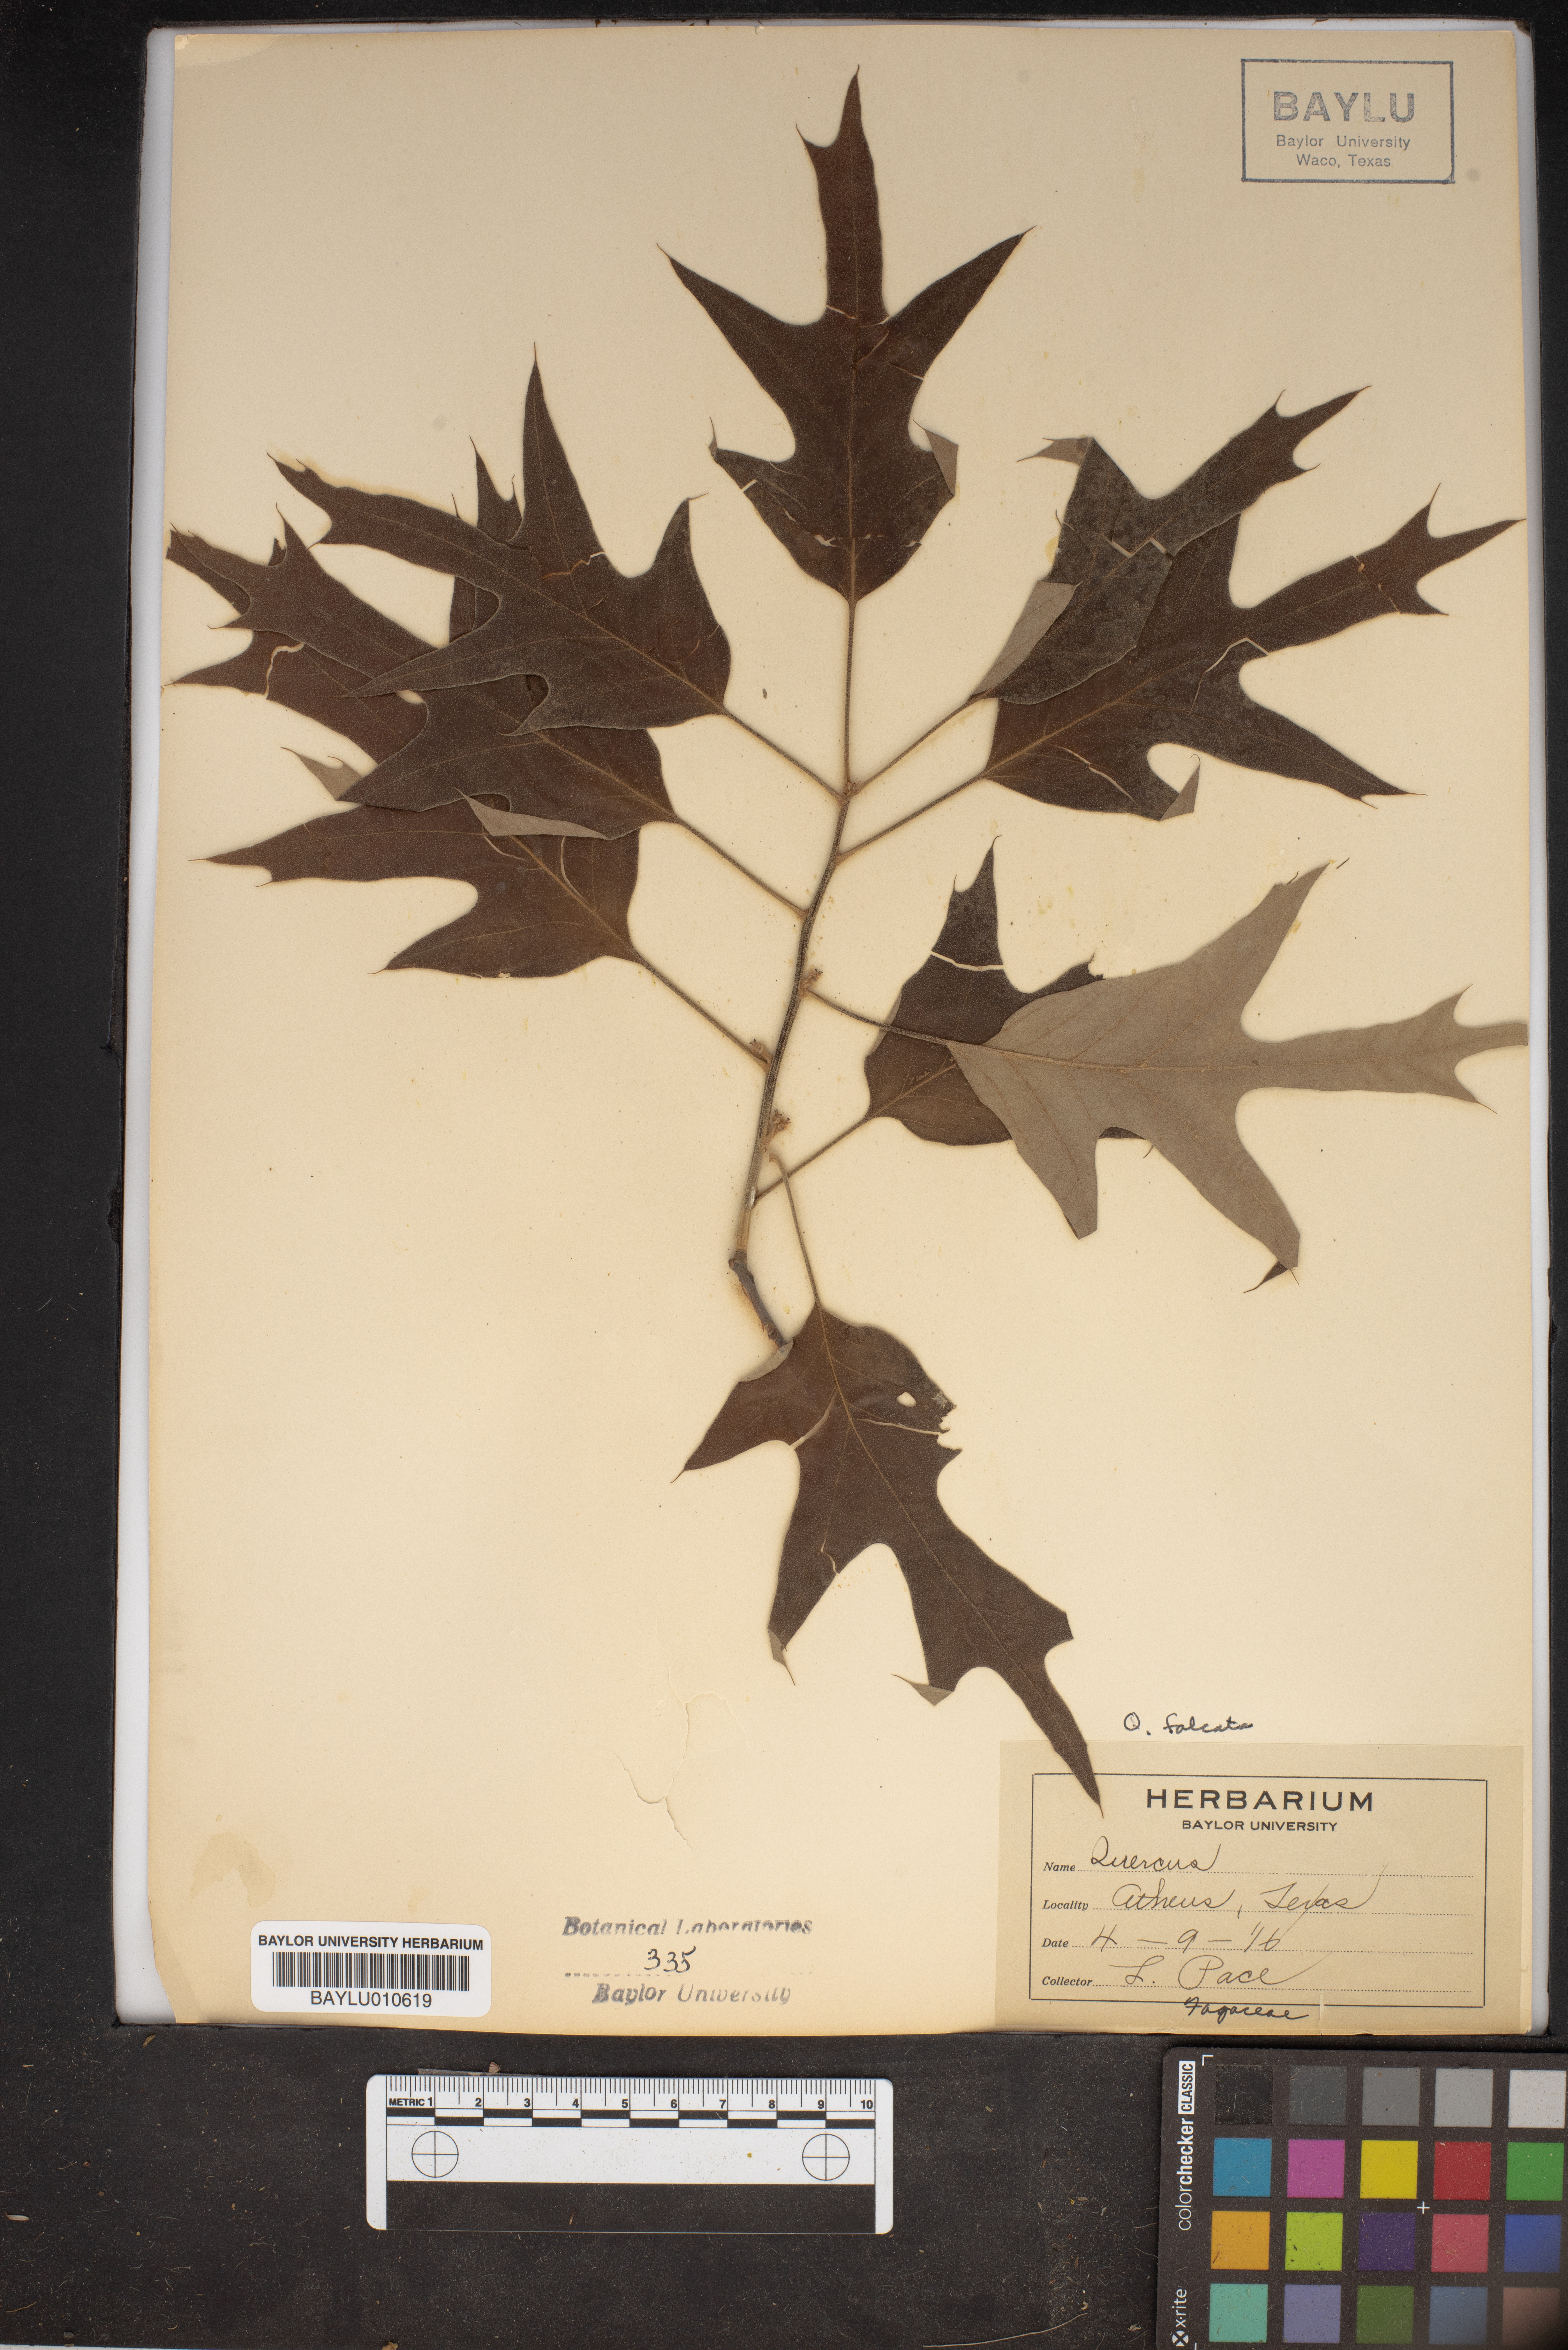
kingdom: Plantae
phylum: Tracheophyta
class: Magnoliopsida
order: Fagales
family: Fagaceae
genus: Quercus
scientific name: Quercus falcata
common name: Southern red oak
